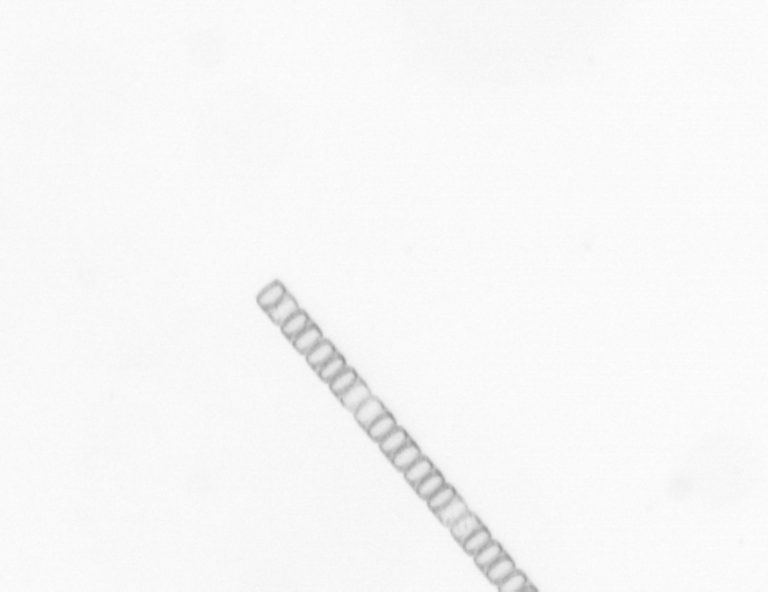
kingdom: Chromista
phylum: Ochrophyta
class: Bacillariophyceae
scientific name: Bacillariophyceae
